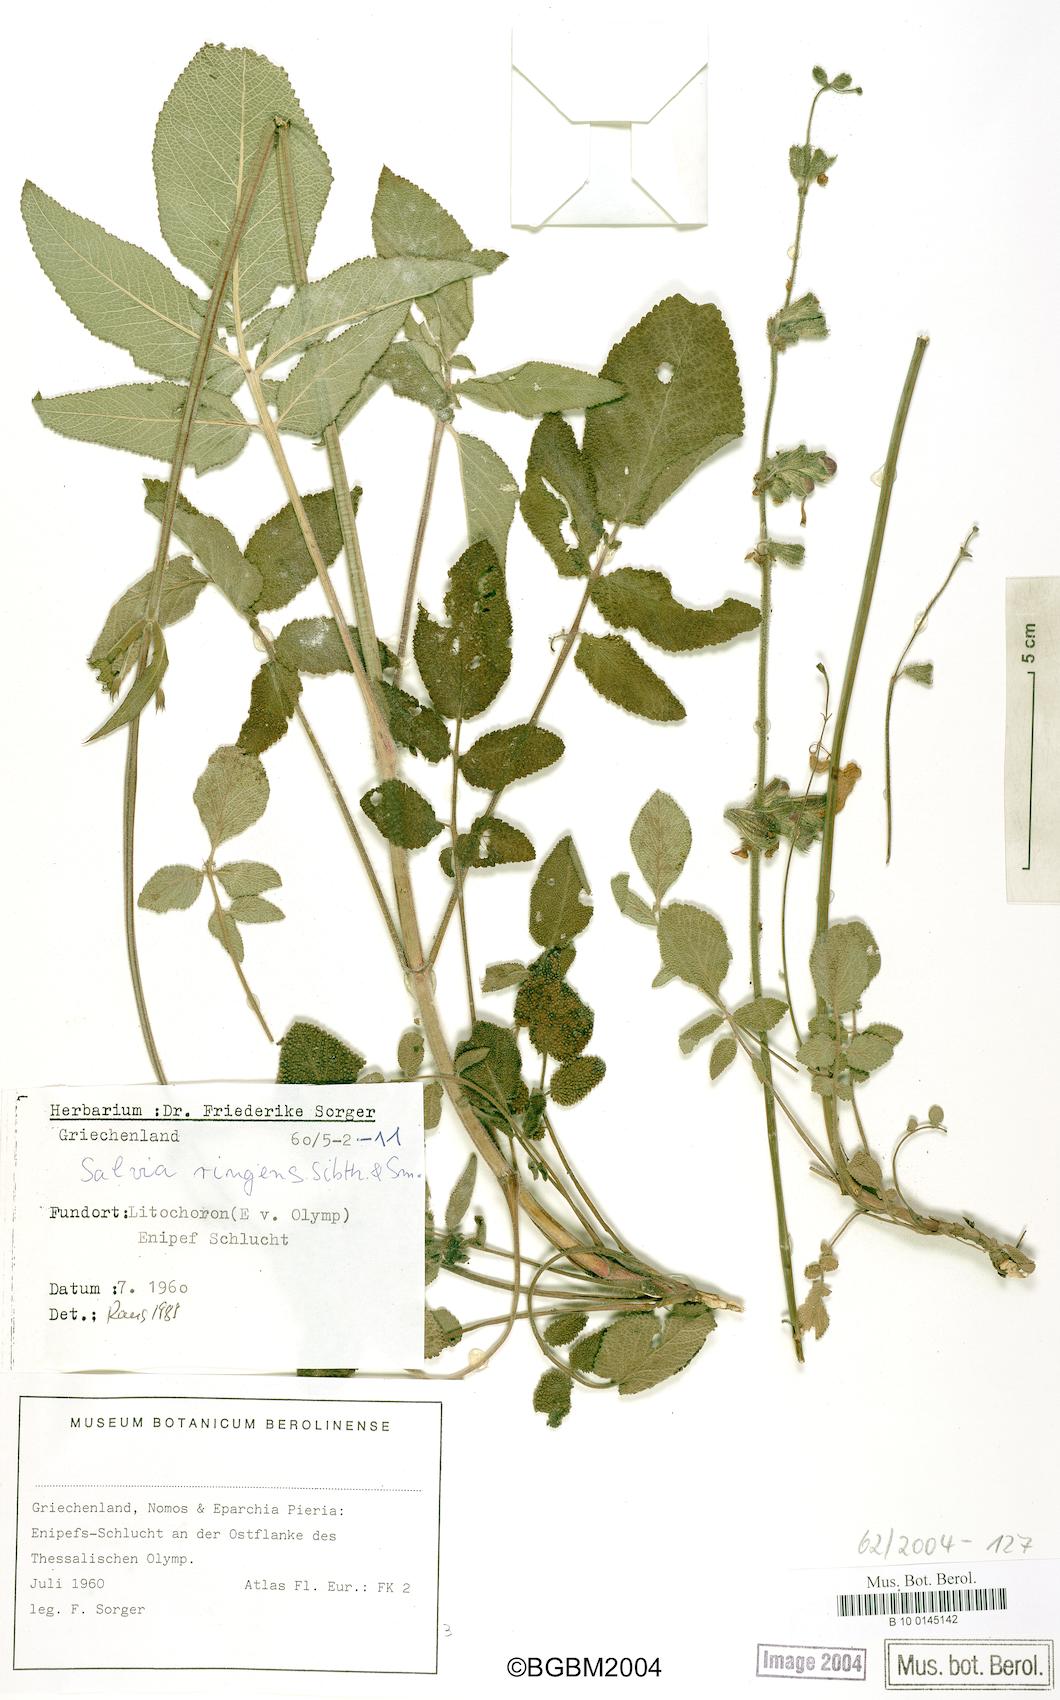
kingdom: Plantae
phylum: Tracheophyta
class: Magnoliopsida
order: Lamiales
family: Lamiaceae
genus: Salvia
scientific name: Salvia ringens
